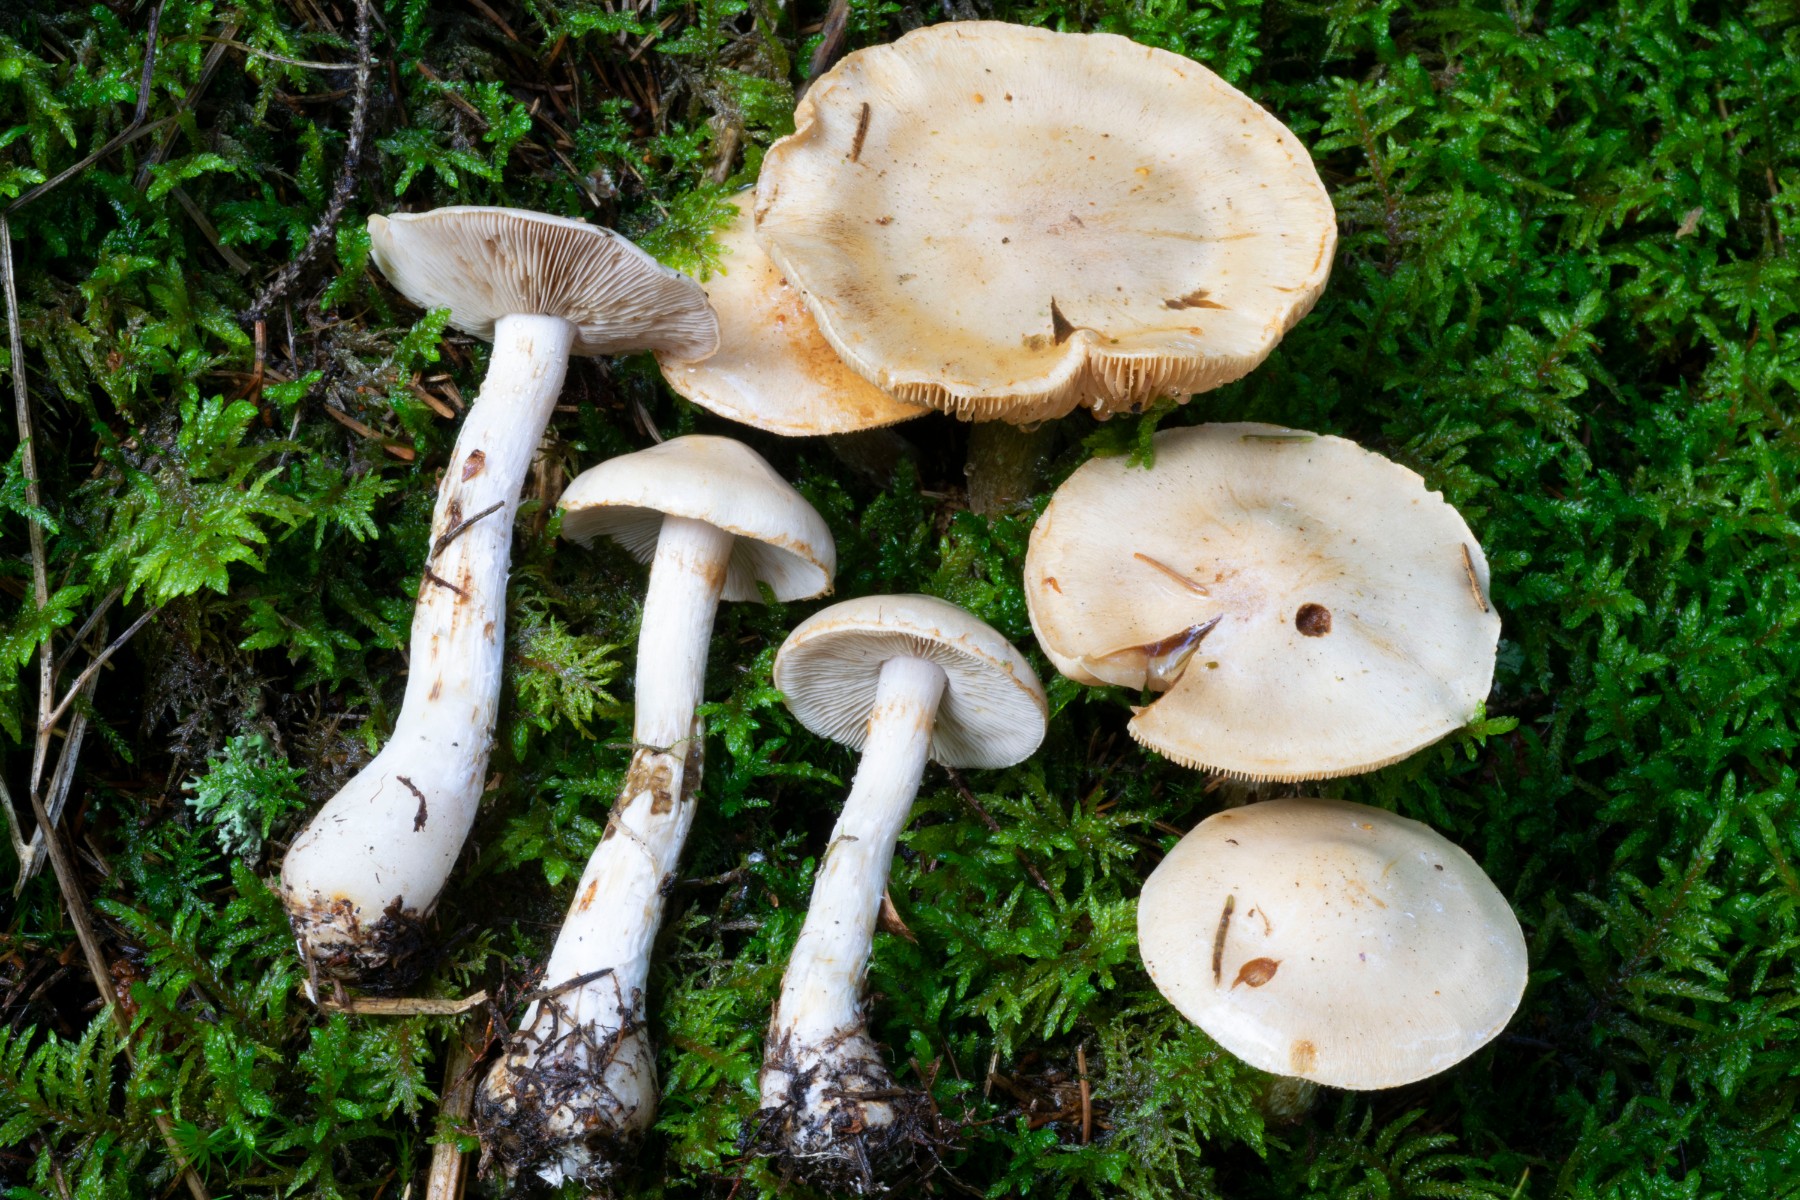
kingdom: Fungi
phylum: Basidiomycota
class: Agaricomycetes
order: Agaricales
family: Cortinariaceae
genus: Thaxterogaster
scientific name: Thaxterogaster leucophanes
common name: fløde-slørhat
